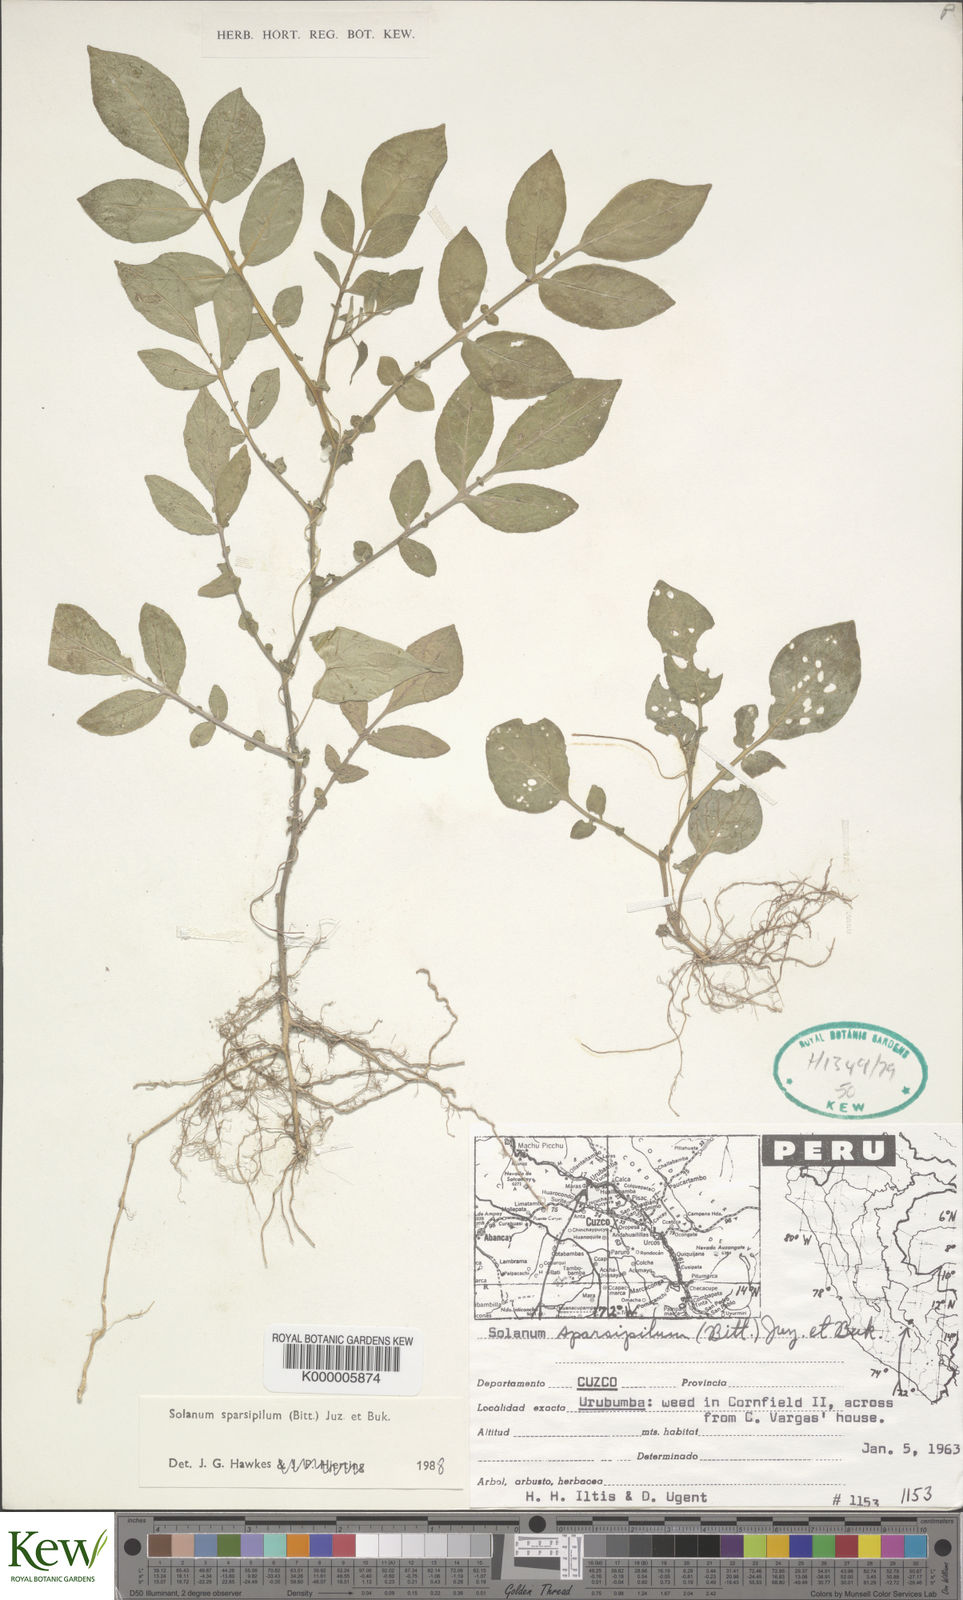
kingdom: Plantae
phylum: Tracheophyta
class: Magnoliopsida
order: Solanales
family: Solanaceae
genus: Solanum
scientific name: Solanum brevicaule
